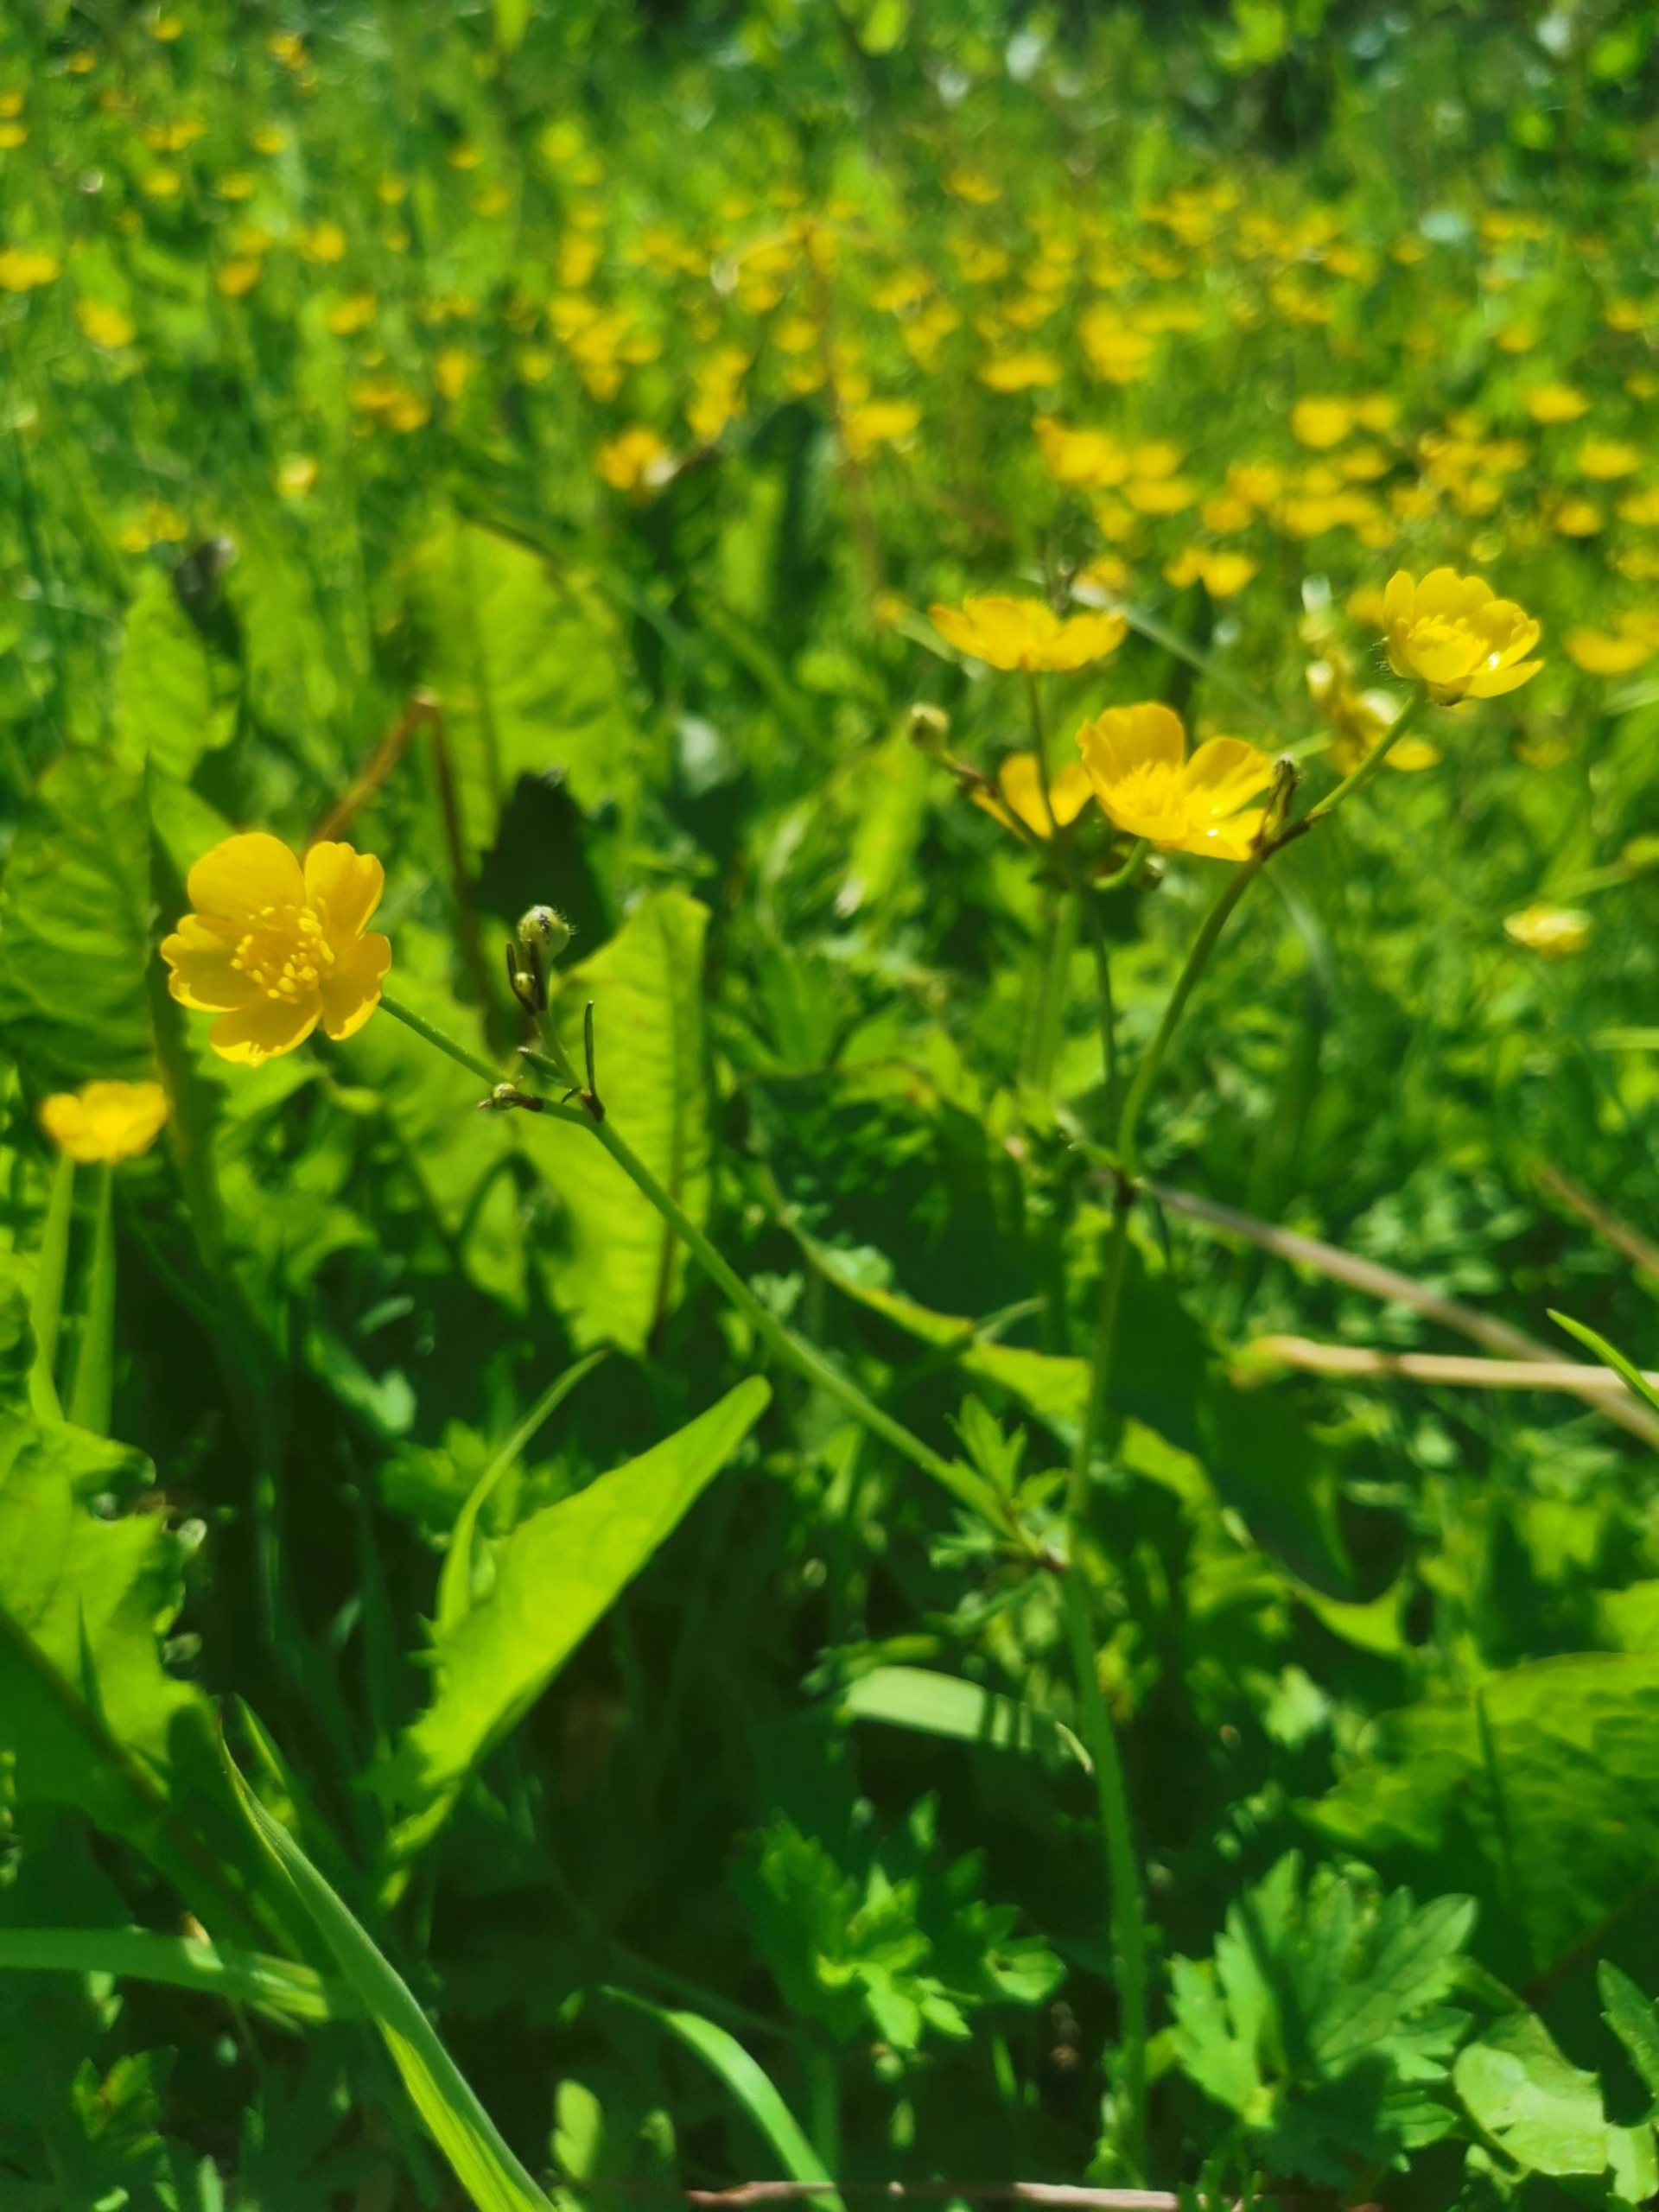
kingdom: Plantae
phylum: Tracheophyta
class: Magnoliopsida
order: Ranunculales
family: Ranunculaceae
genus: Ranunculus
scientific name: Ranunculus repens
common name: Lav ranunkel
